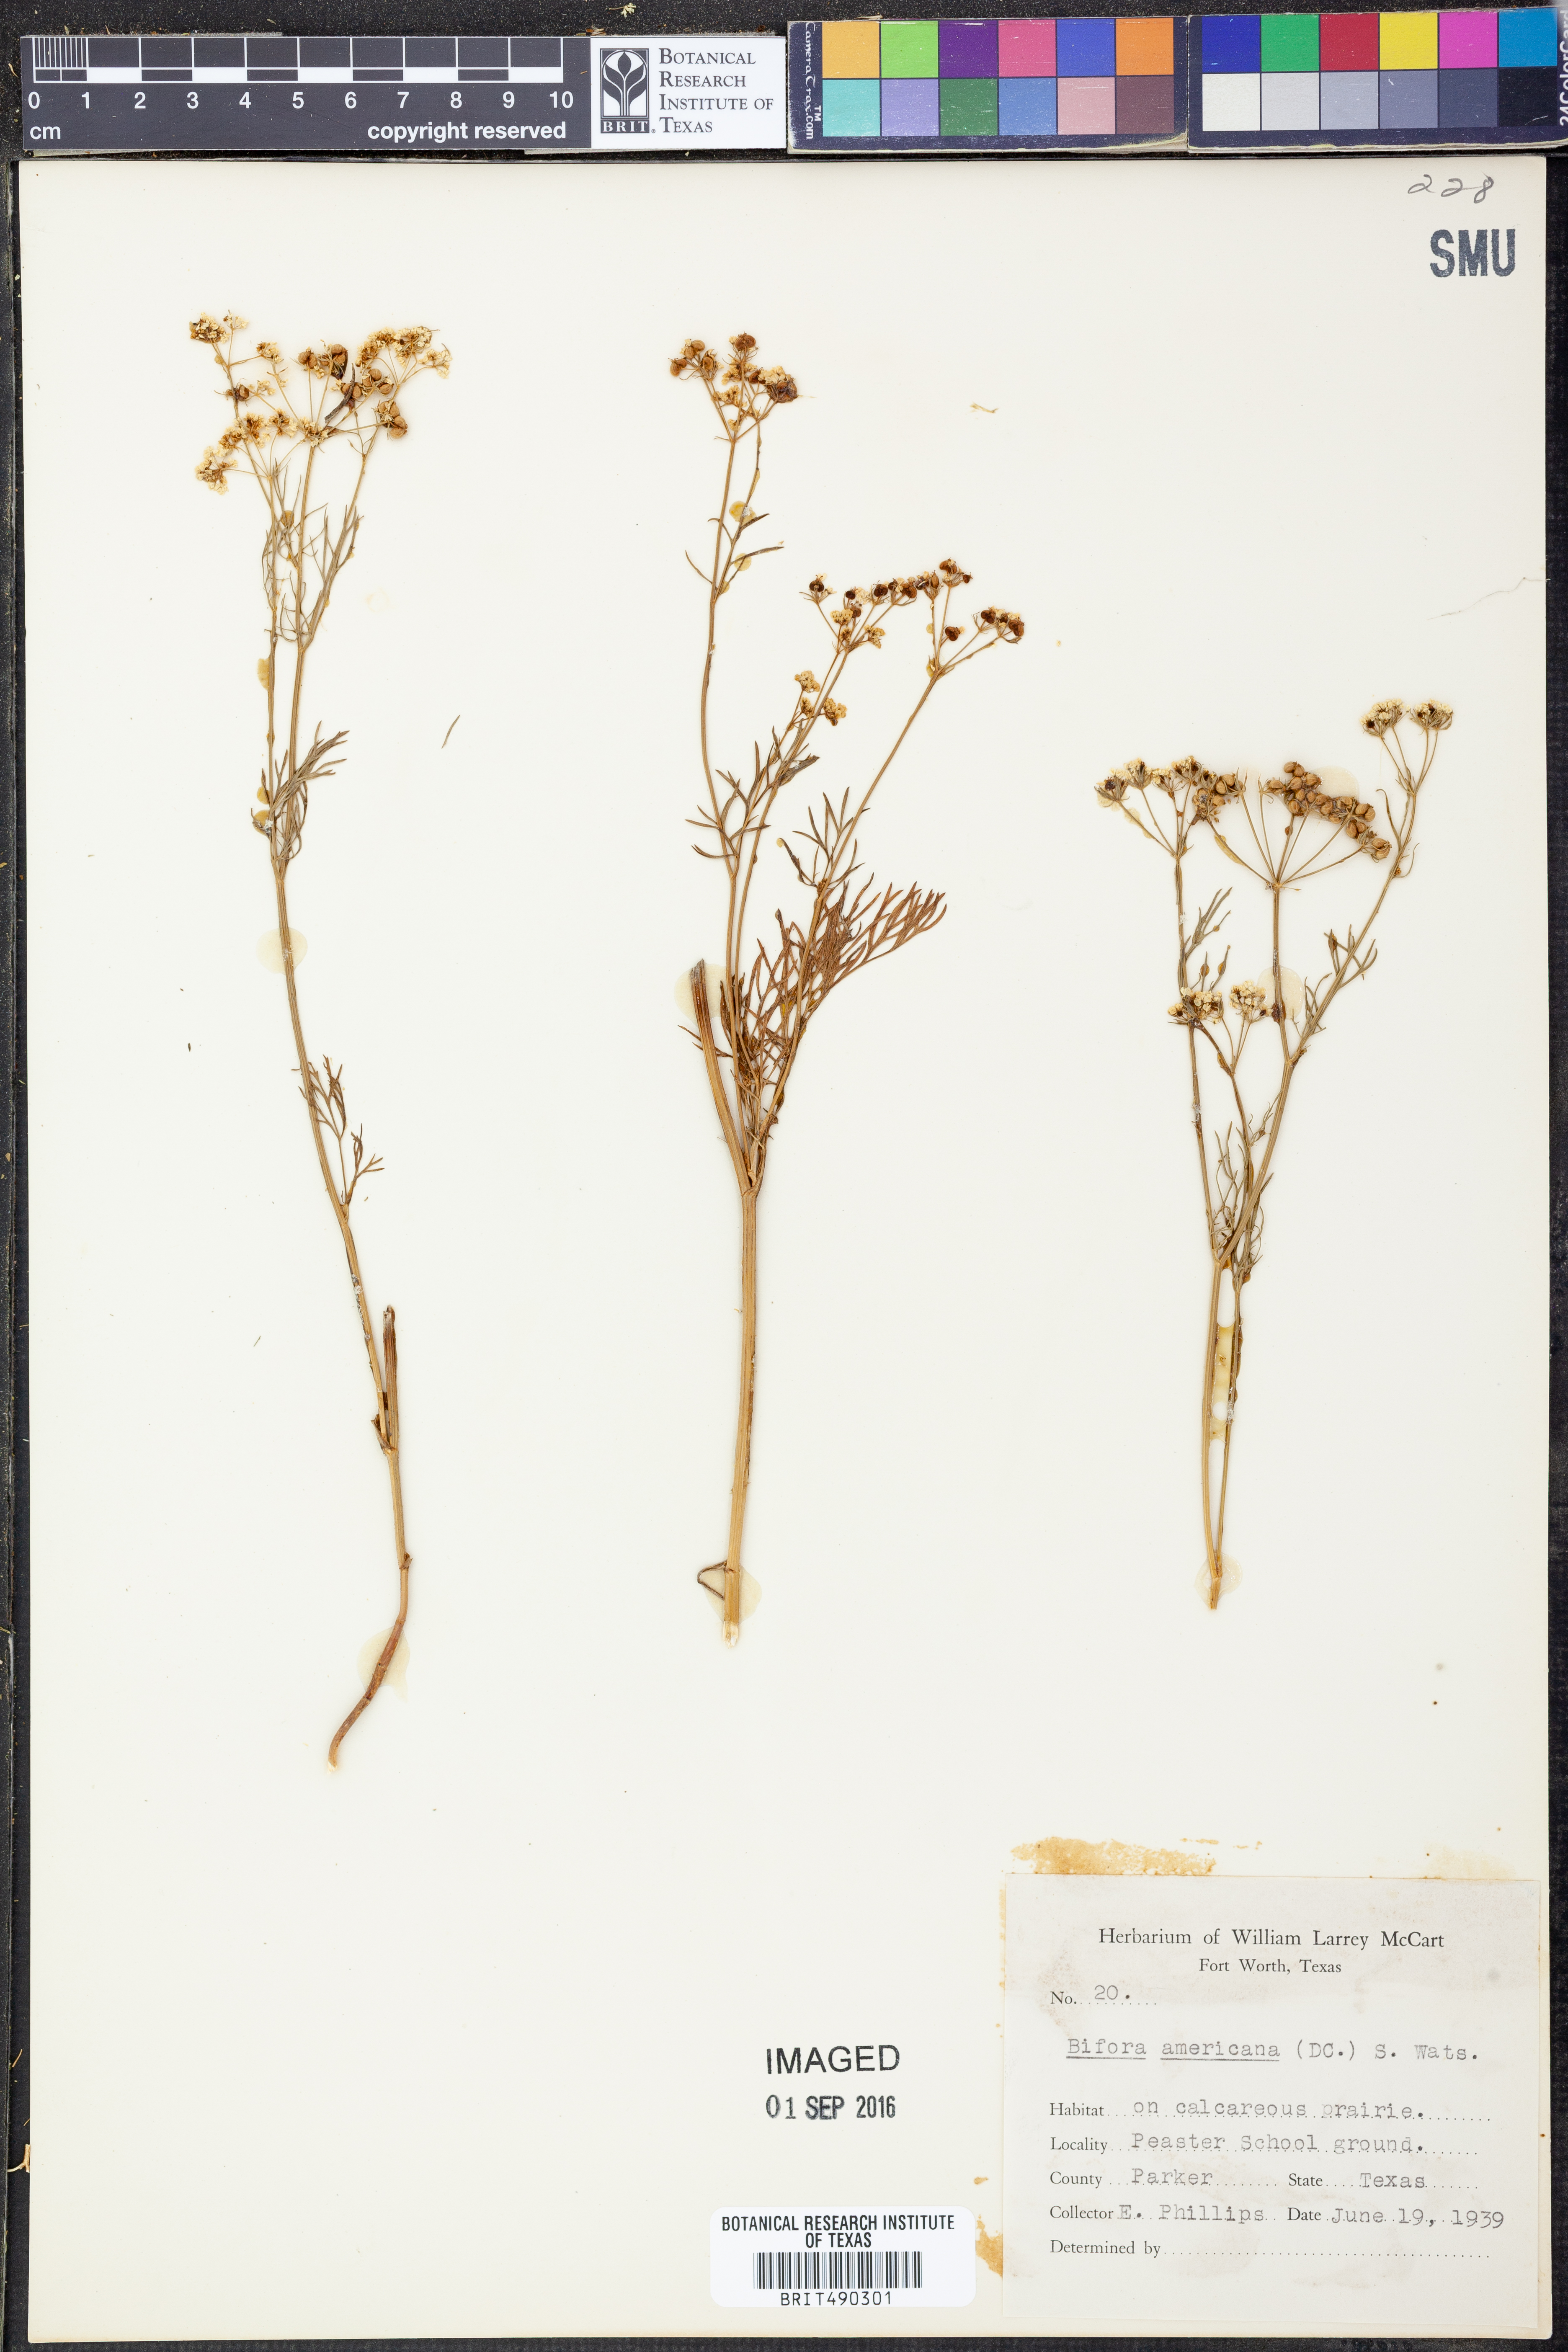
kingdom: Plantae
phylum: Tracheophyta
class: Magnoliopsida
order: Apiales
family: Apiaceae
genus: Atrema
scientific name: Atrema americanum
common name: Prairie-bishop
